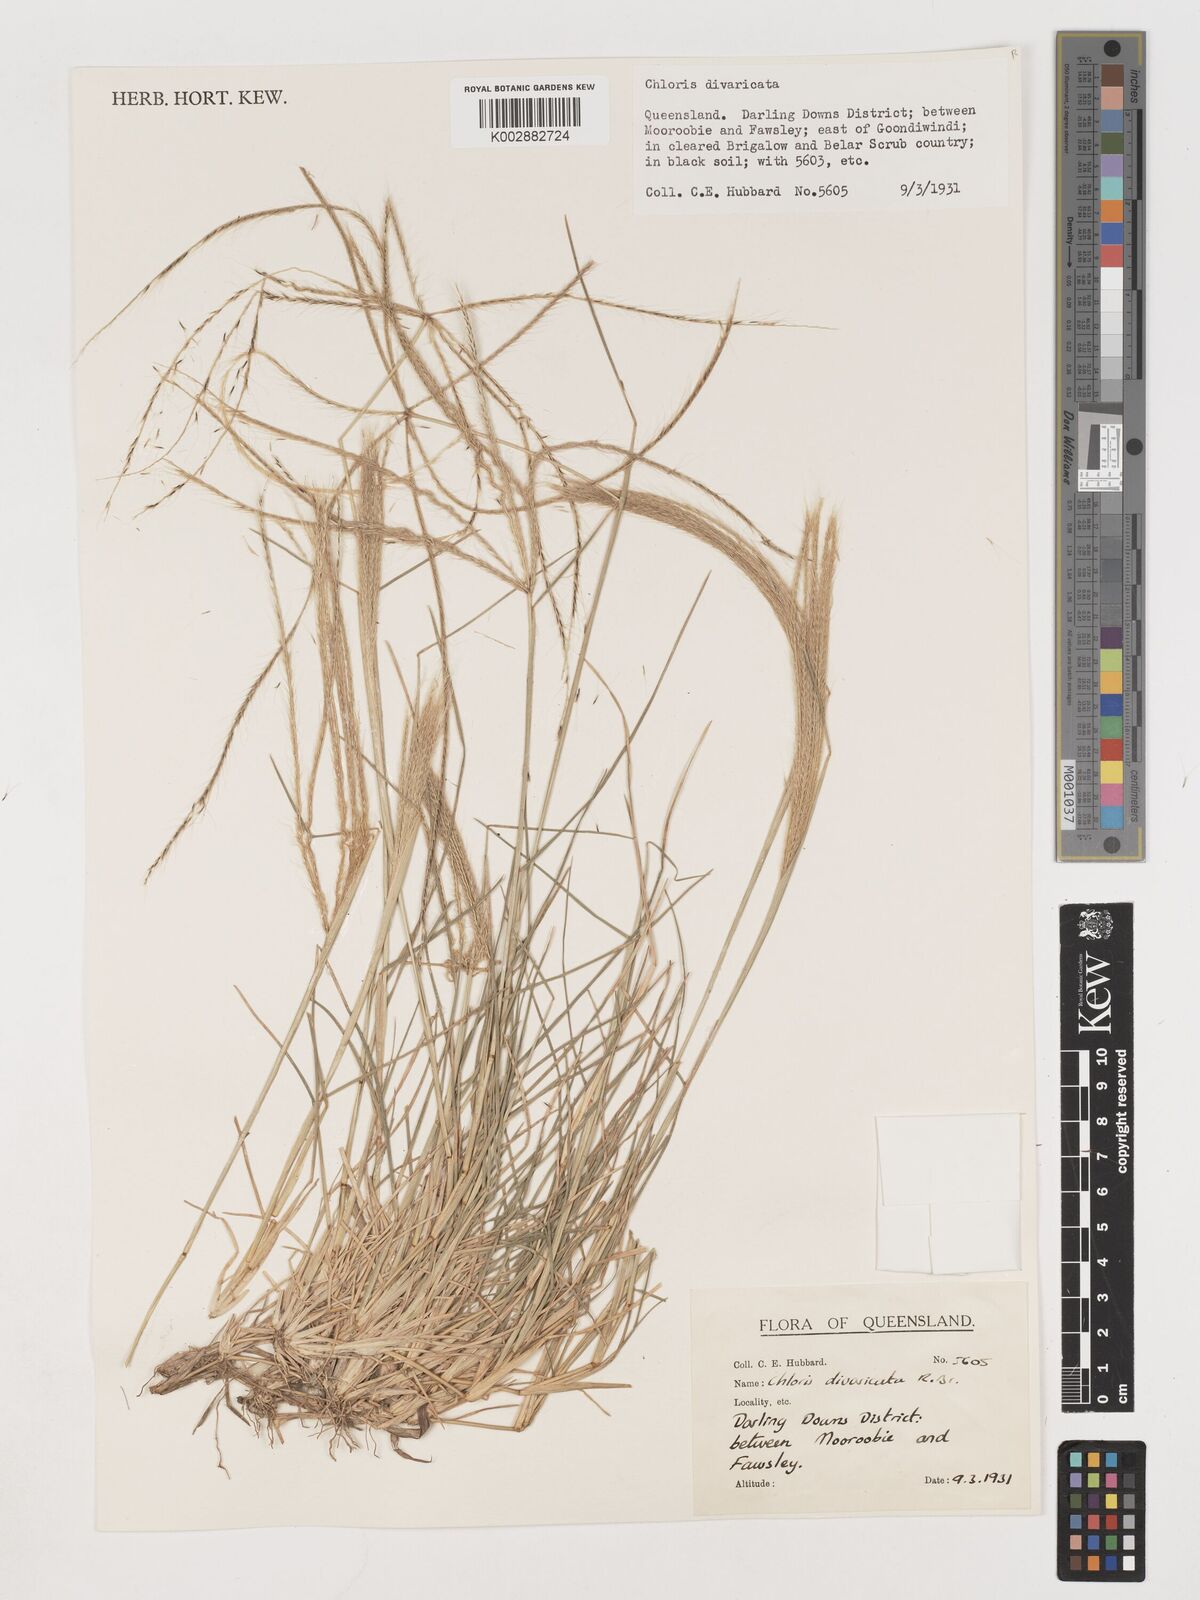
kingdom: Plantae
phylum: Tracheophyta
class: Liliopsida
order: Poales
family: Poaceae
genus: Chloris
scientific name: Chloris divaricata
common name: Spreading windmill grass
